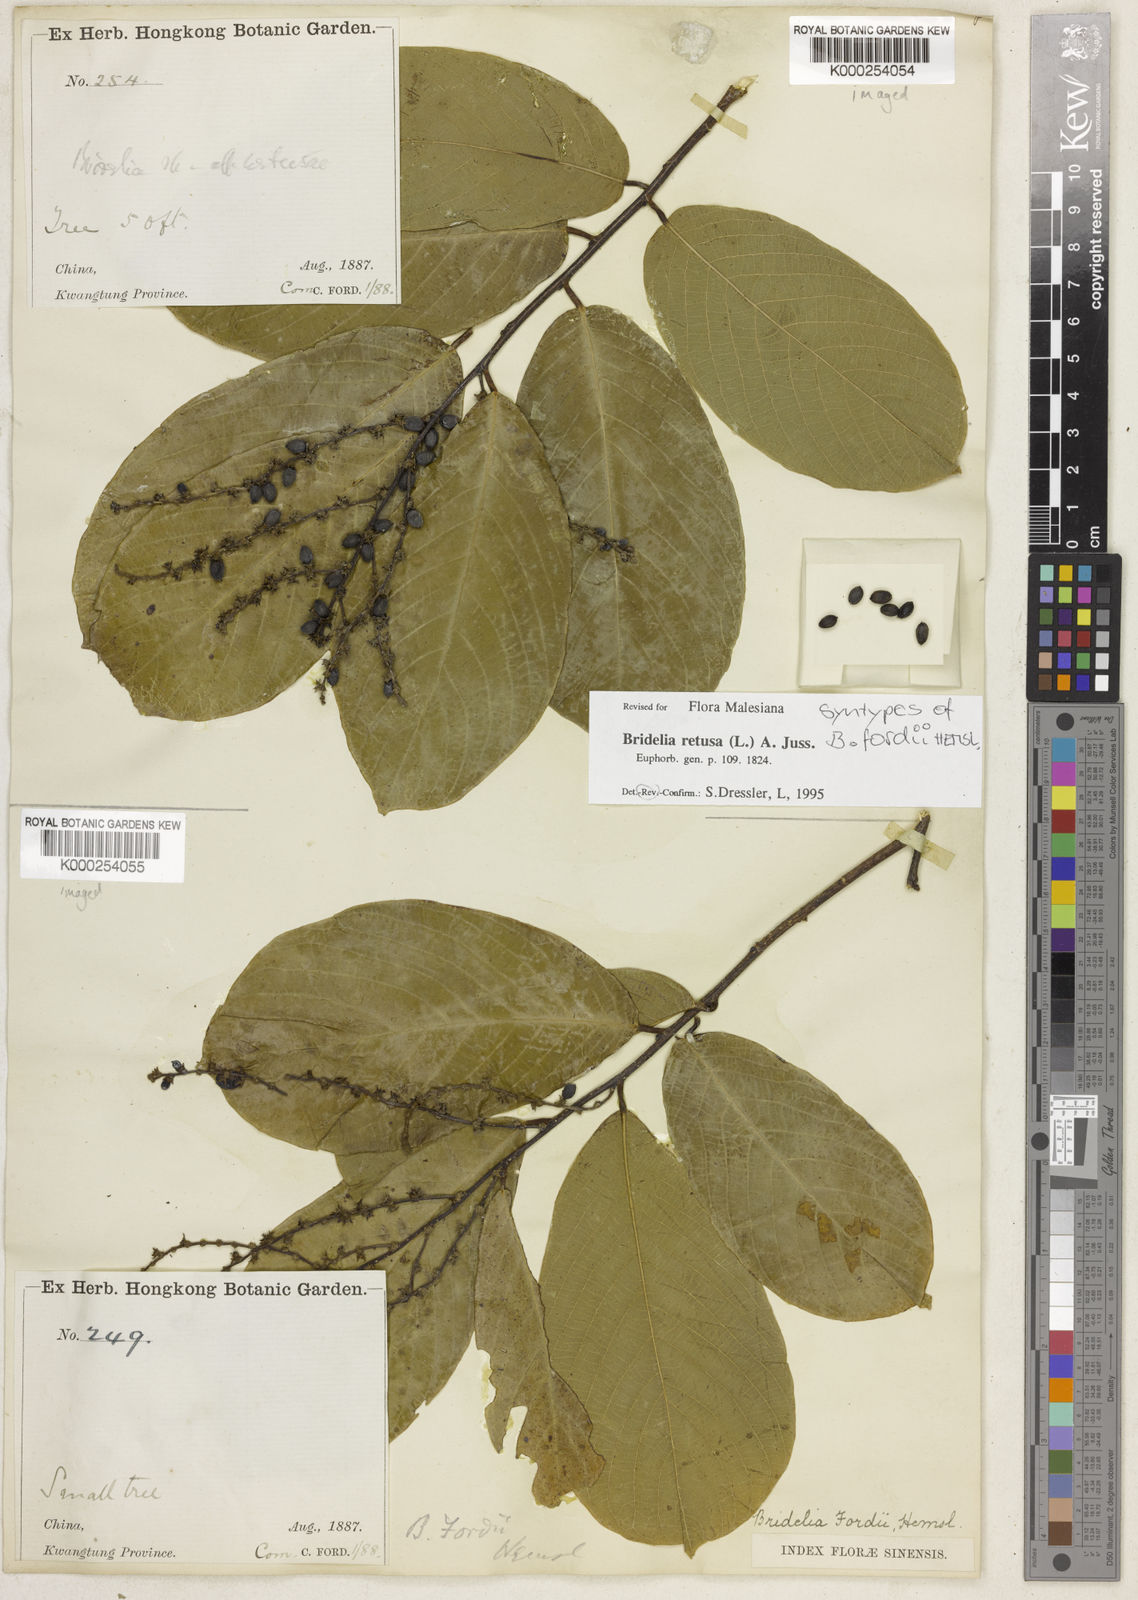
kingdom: Plantae
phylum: Tracheophyta
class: Magnoliopsida
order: Malpighiales
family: Phyllanthaceae
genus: Bridelia
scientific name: Bridelia retusa
